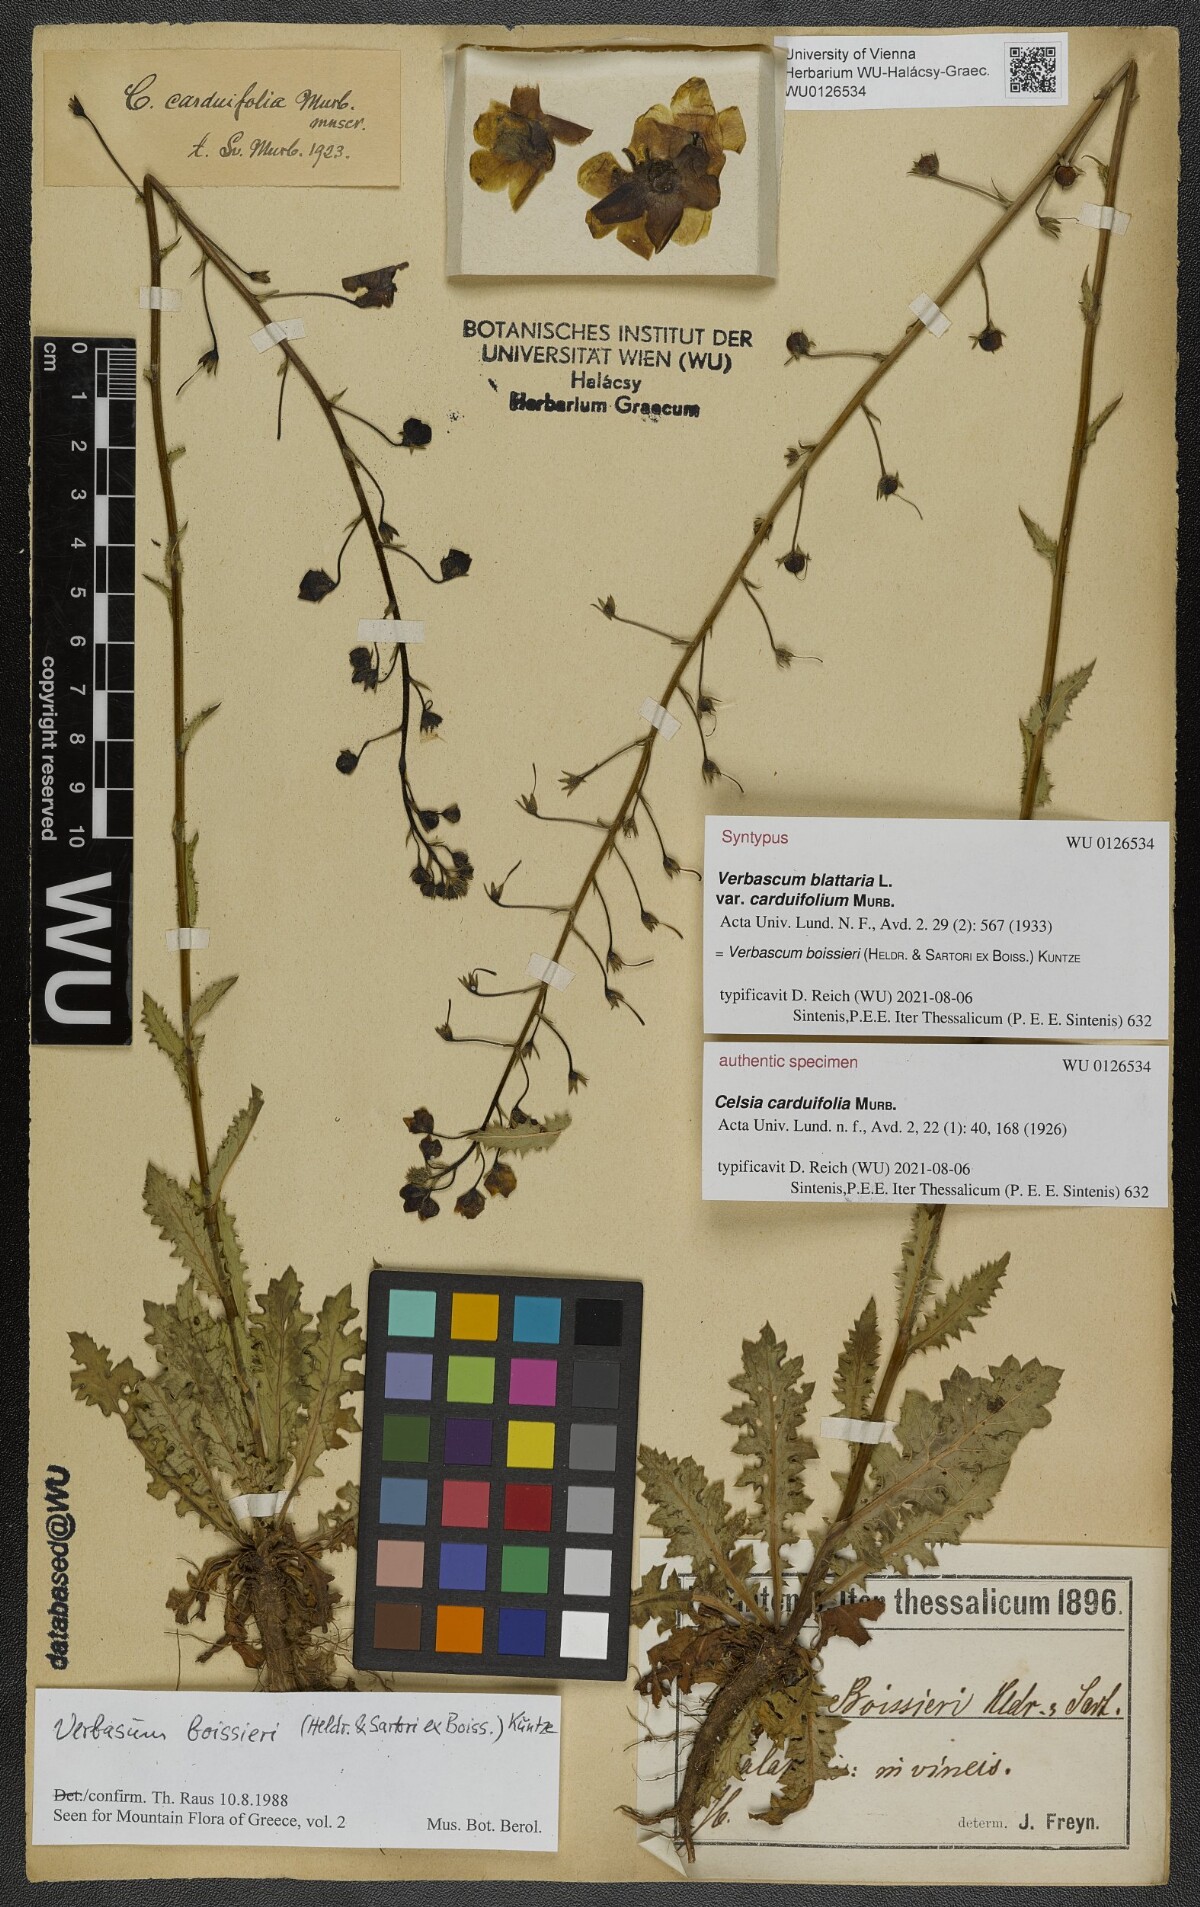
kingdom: Plantae
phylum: Tracheophyta
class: Magnoliopsida
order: Lamiales
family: Scrophulariaceae
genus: Verbascum
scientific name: Verbascum blattaria
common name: Moth mullein
